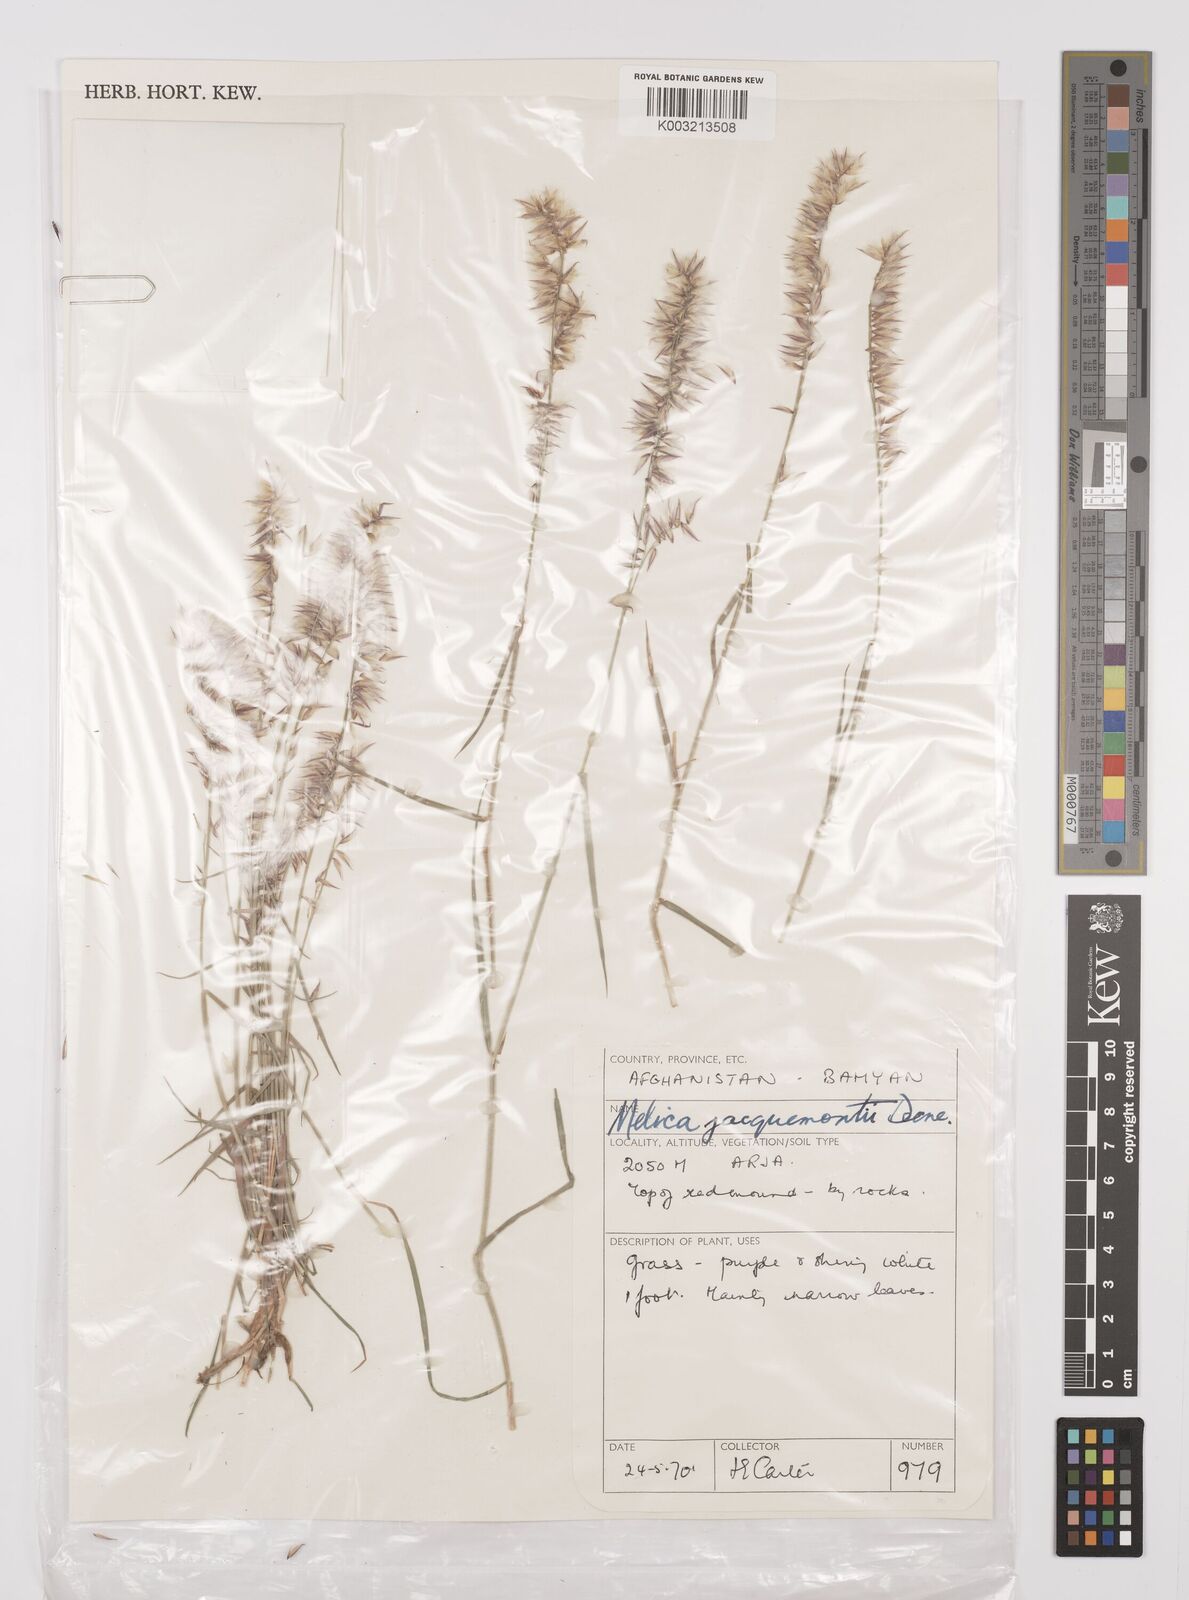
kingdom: Plantae
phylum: Tracheophyta
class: Liliopsida
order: Poales
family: Poaceae
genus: Melica
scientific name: Melica persica
